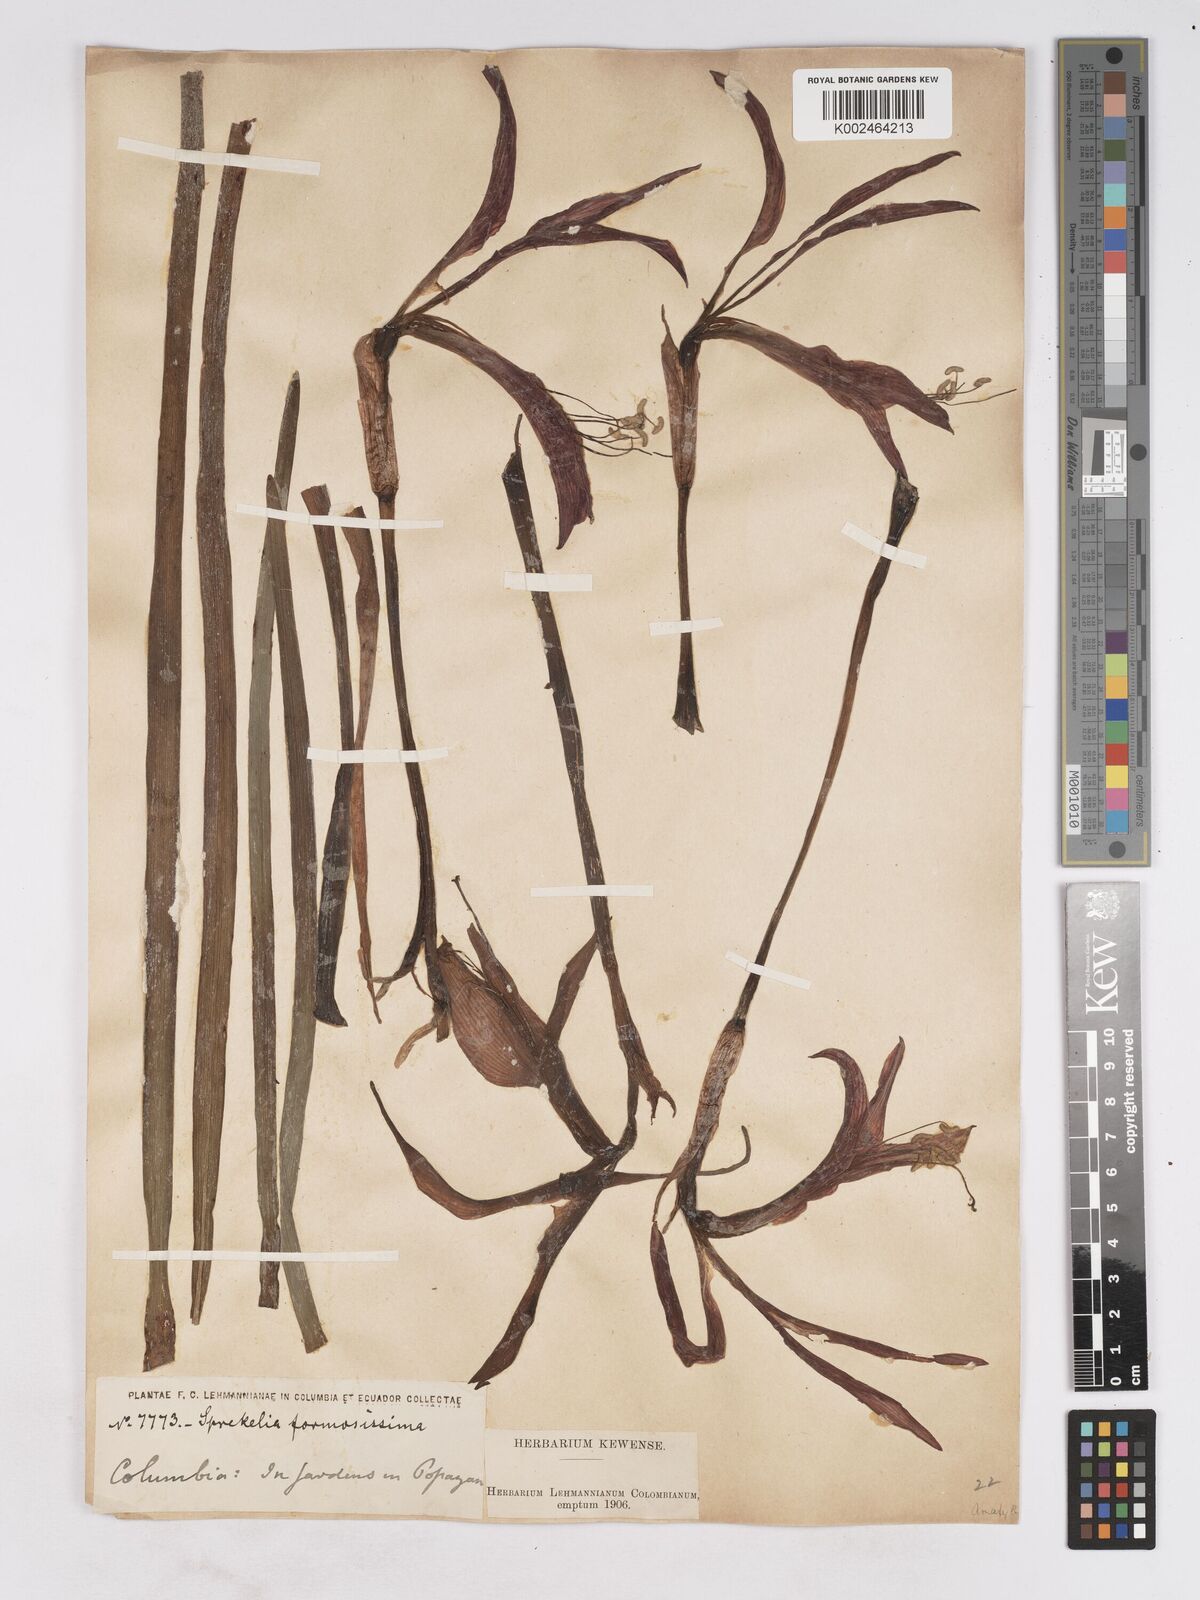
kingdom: Plantae
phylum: Tracheophyta
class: Liliopsida
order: Asparagales
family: Amaryllidaceae
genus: Sprekelia
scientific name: Sprekelia formosissima
